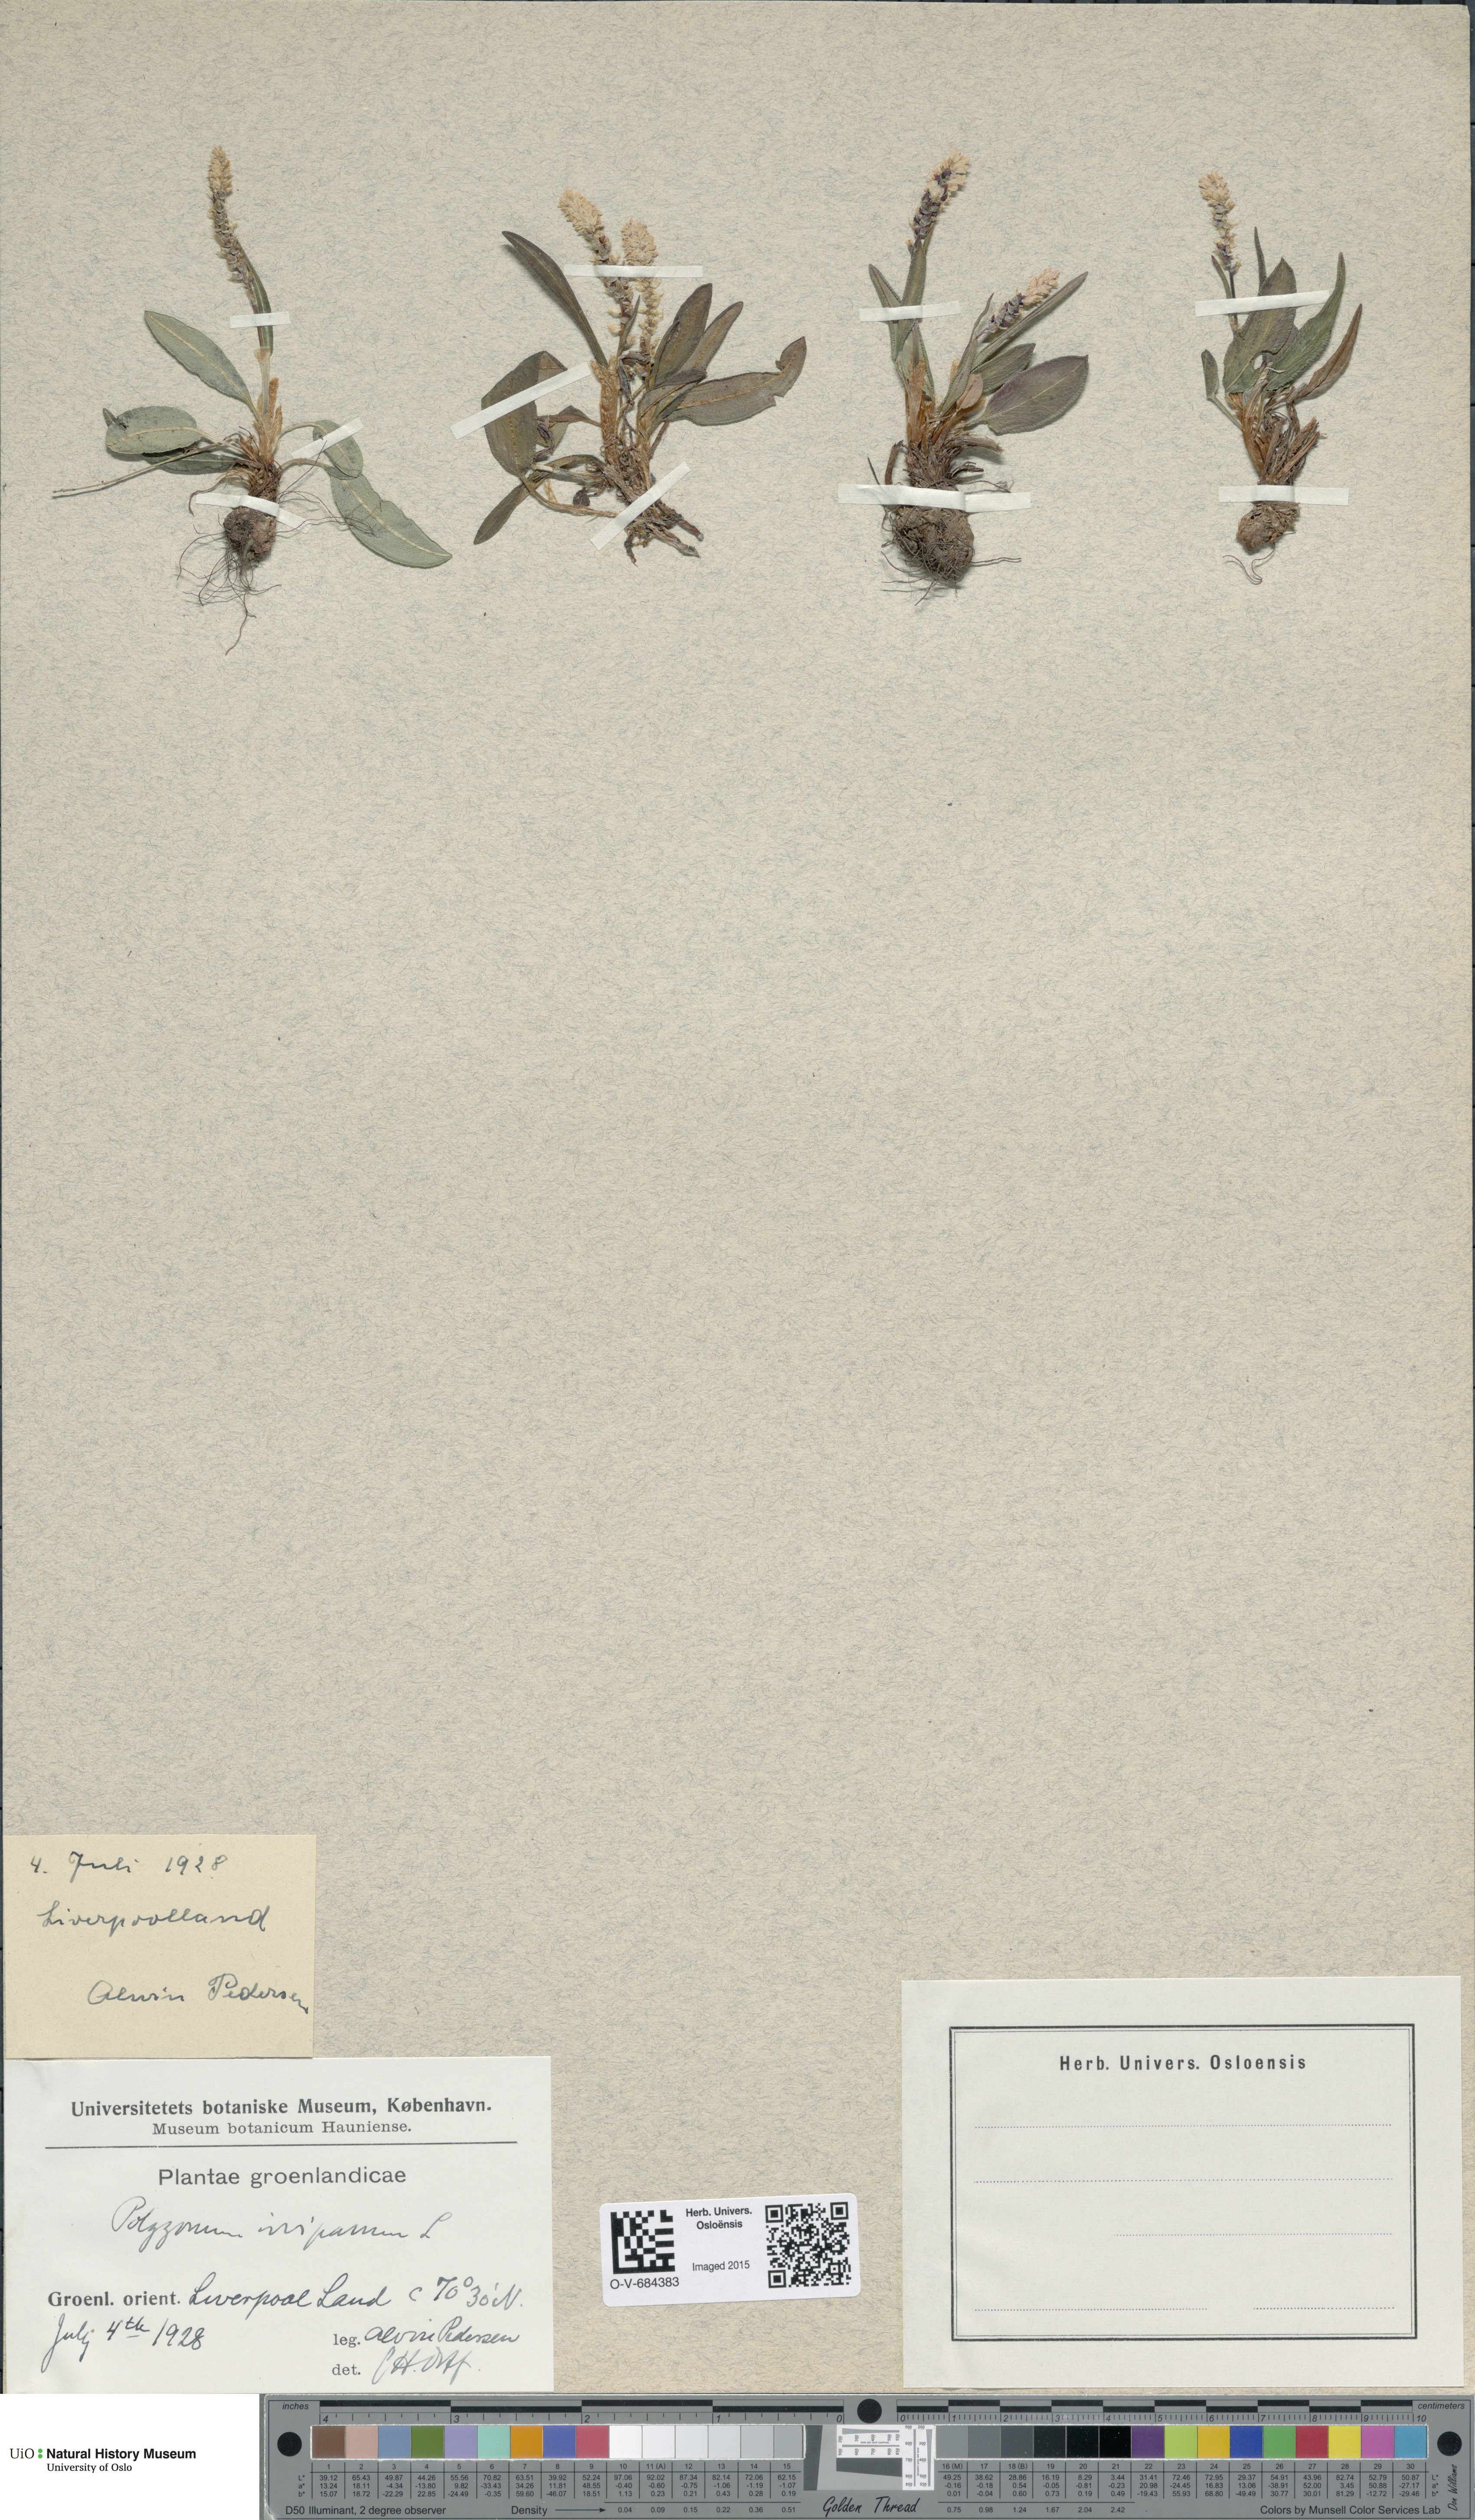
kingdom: Plantae
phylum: Tracheophyta
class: Magnoliopsida
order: Caryophyllales
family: Polygonaceae
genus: Bistorta
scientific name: Bistorta vivipara
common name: Alpine bistort
